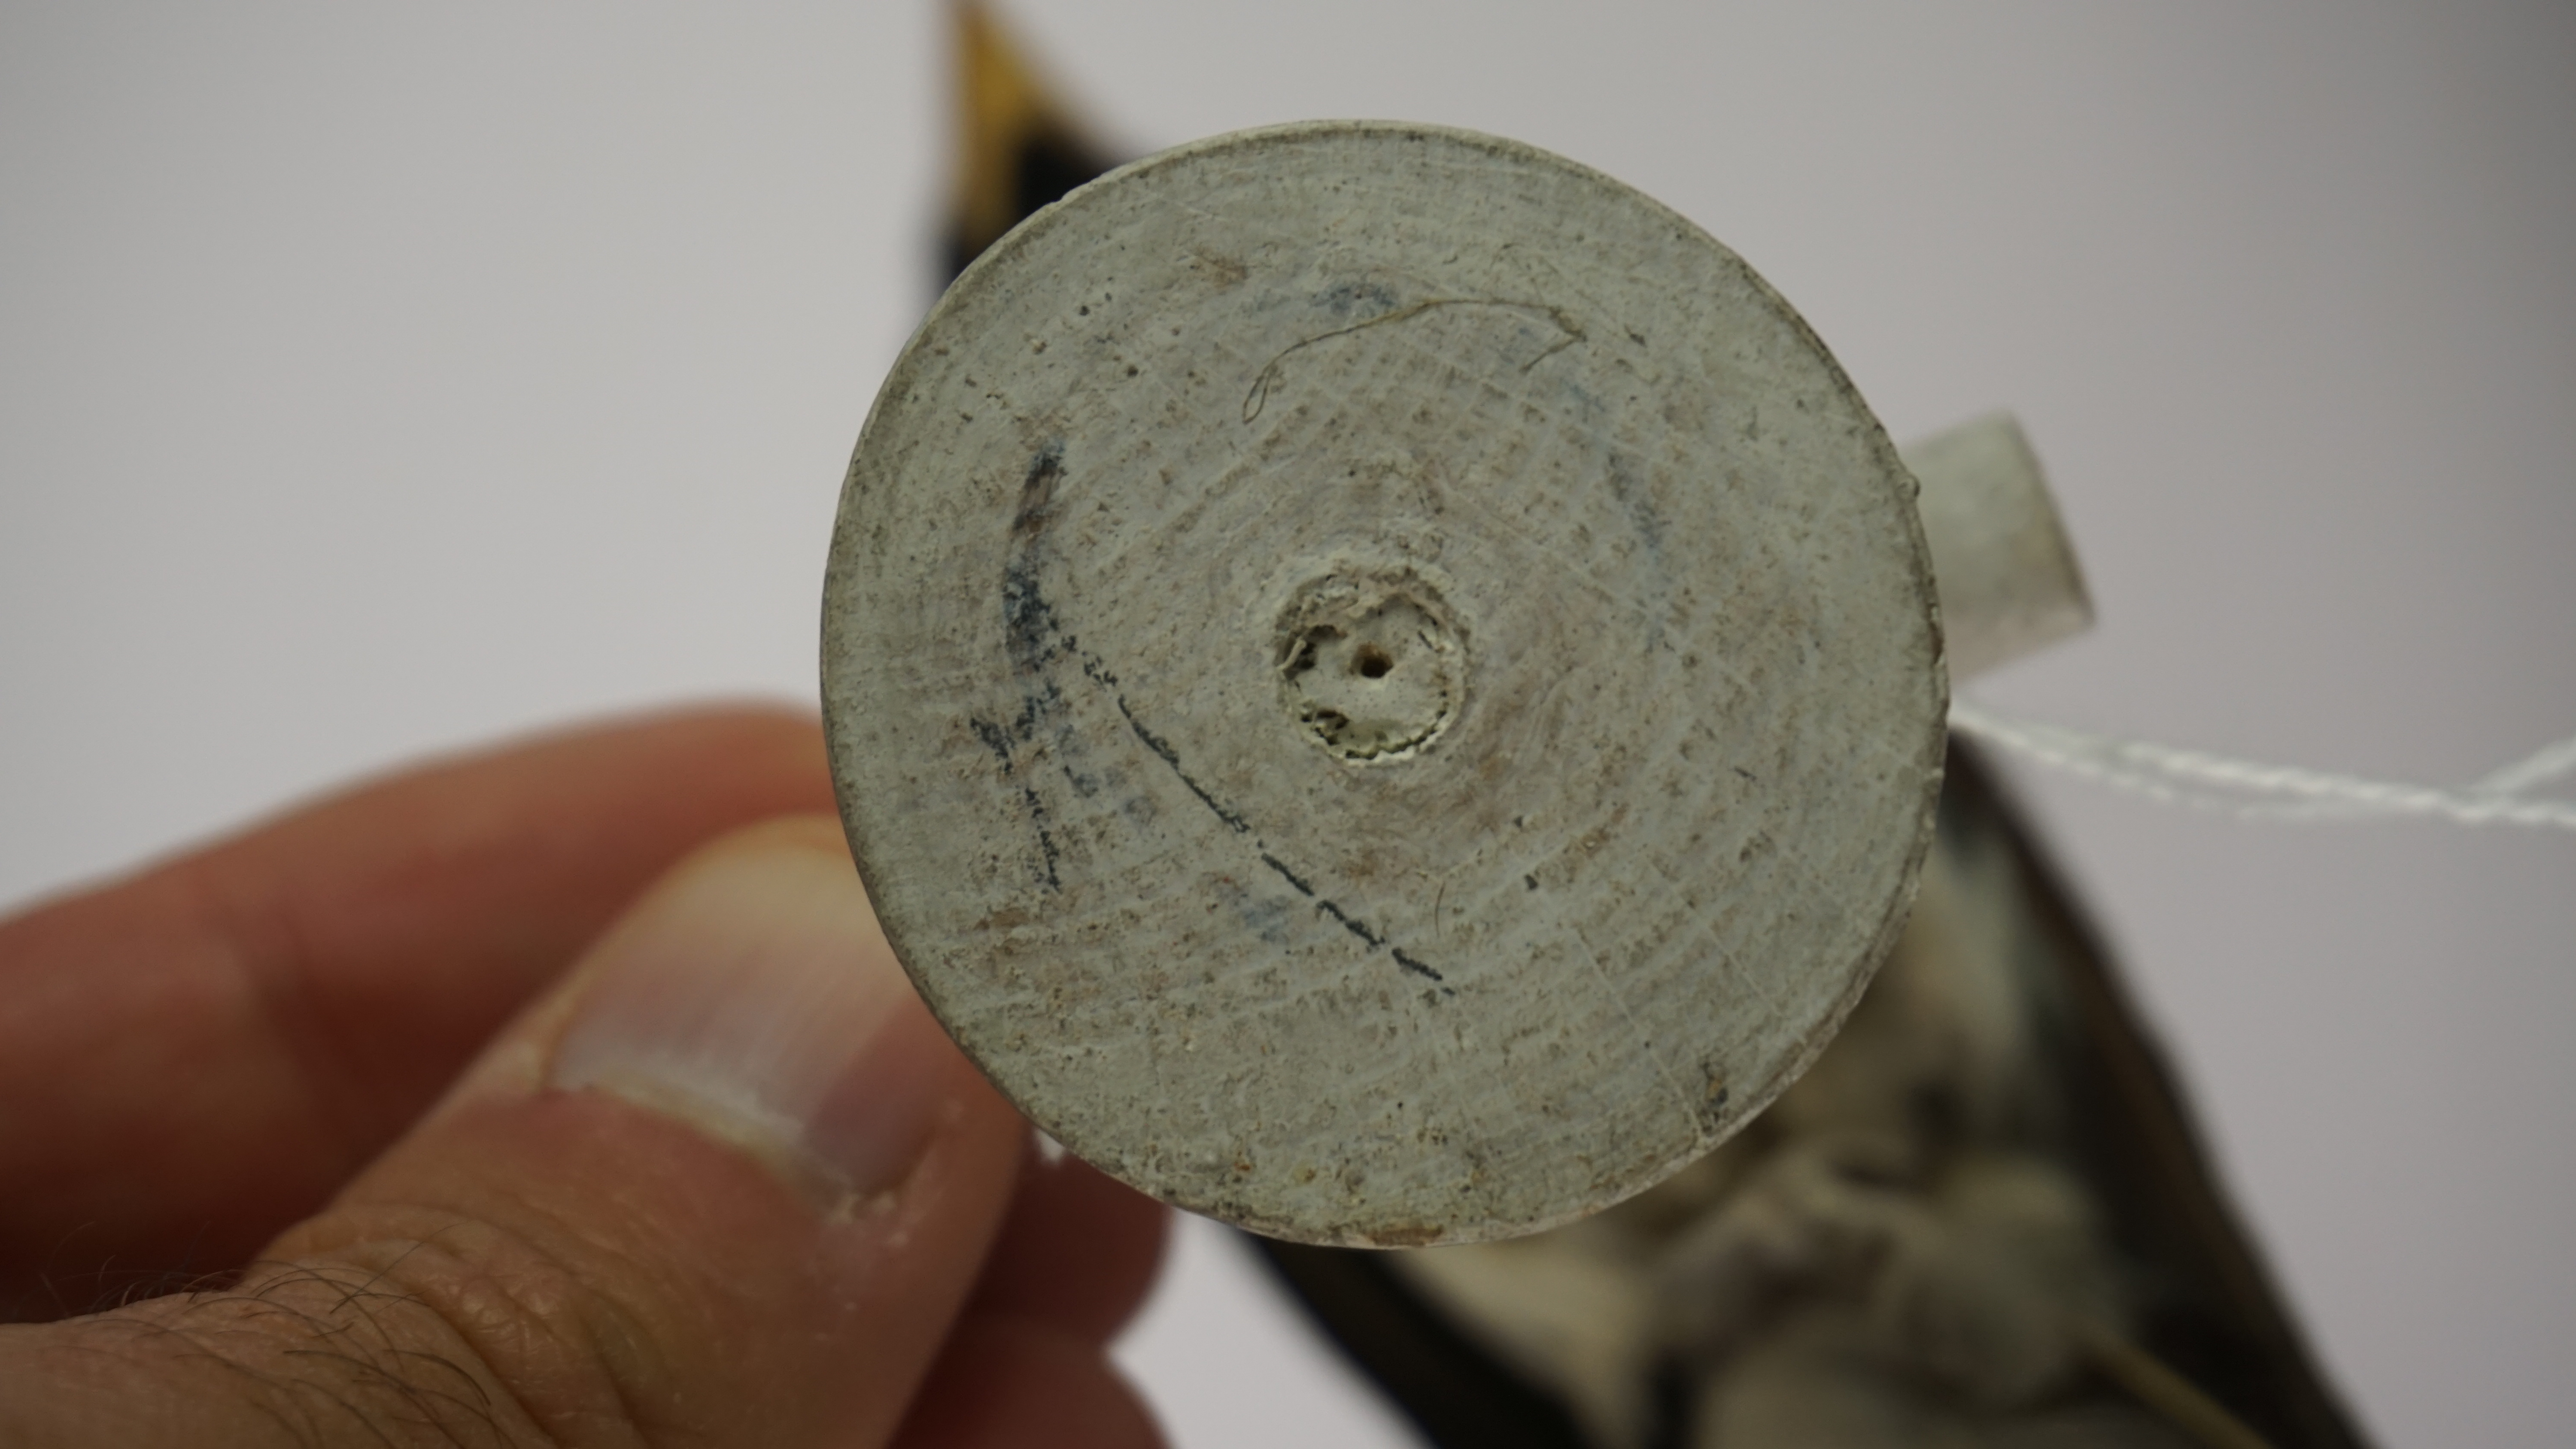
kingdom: Animalia
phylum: Chordata
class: Aves
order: Passeriformes
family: Mitrospingidae
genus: Lamprospiza
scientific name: Lamprospiza melanoleuca
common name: Red-billed pied tanager
